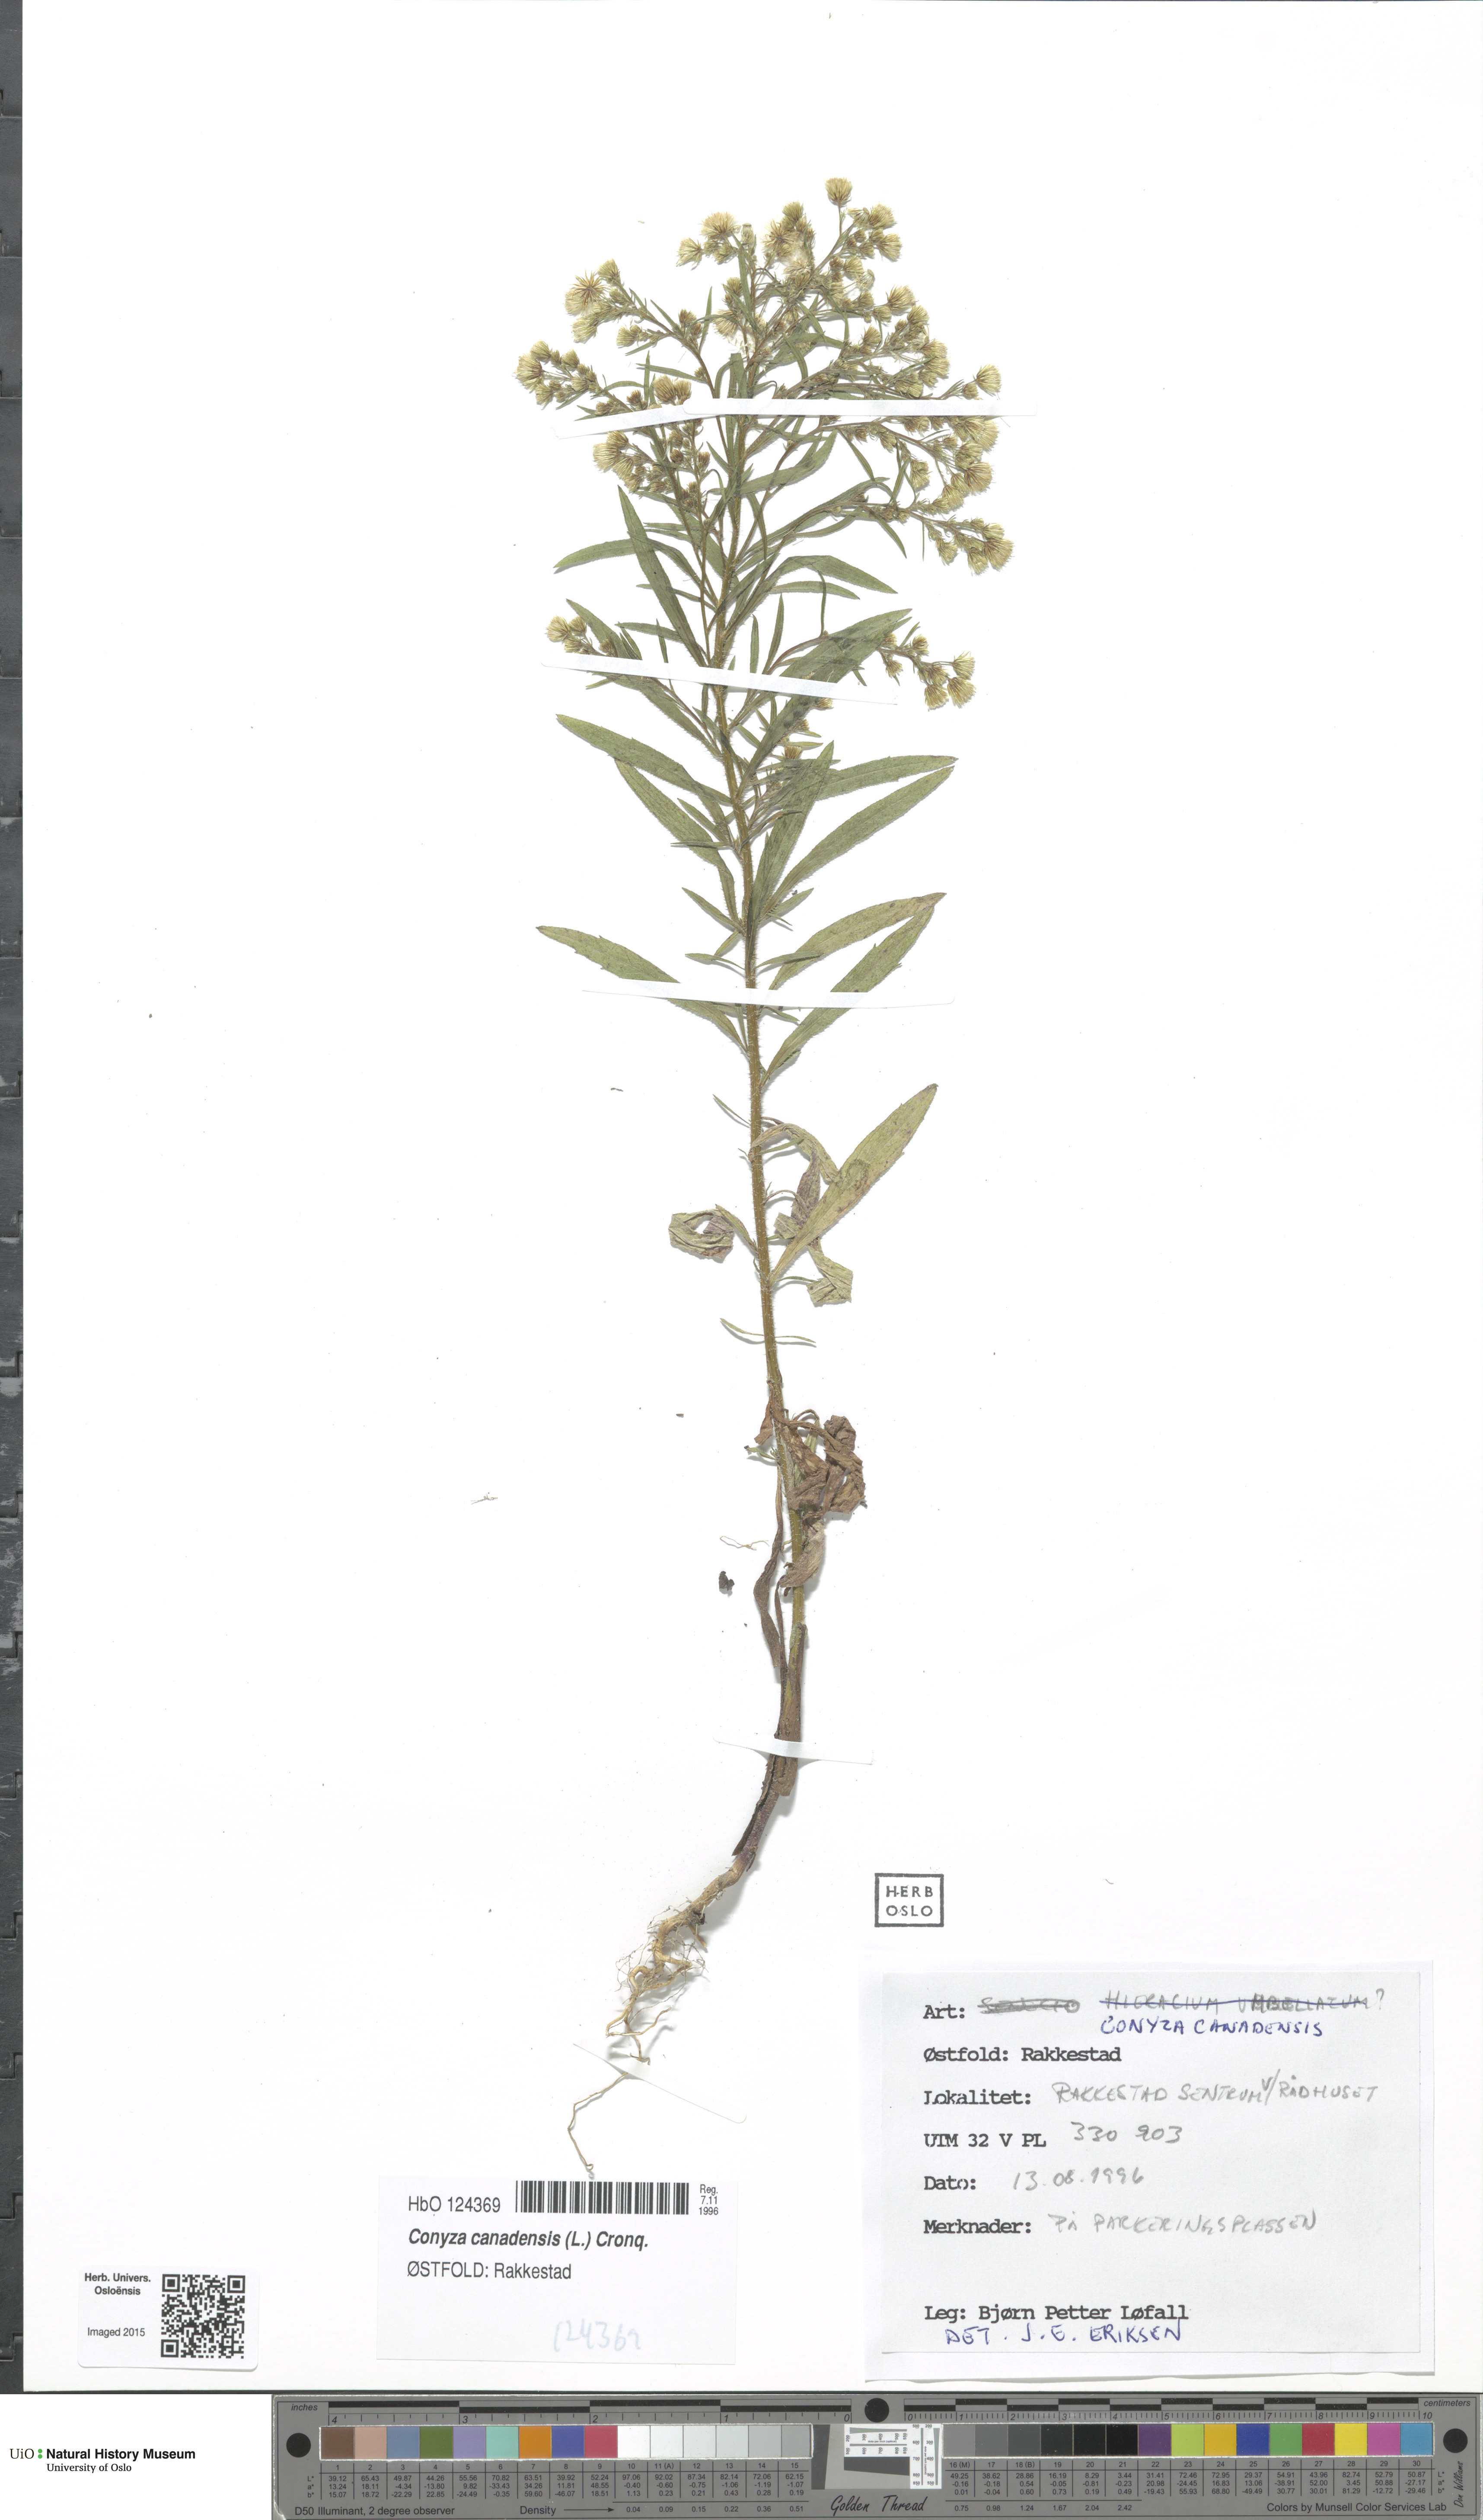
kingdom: Plantae
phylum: Tracheophyta
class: Magnoliopsida
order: Asterales
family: Asteraceae
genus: Erigeron
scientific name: Erigeron canadensis
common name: Canadian fleabane
